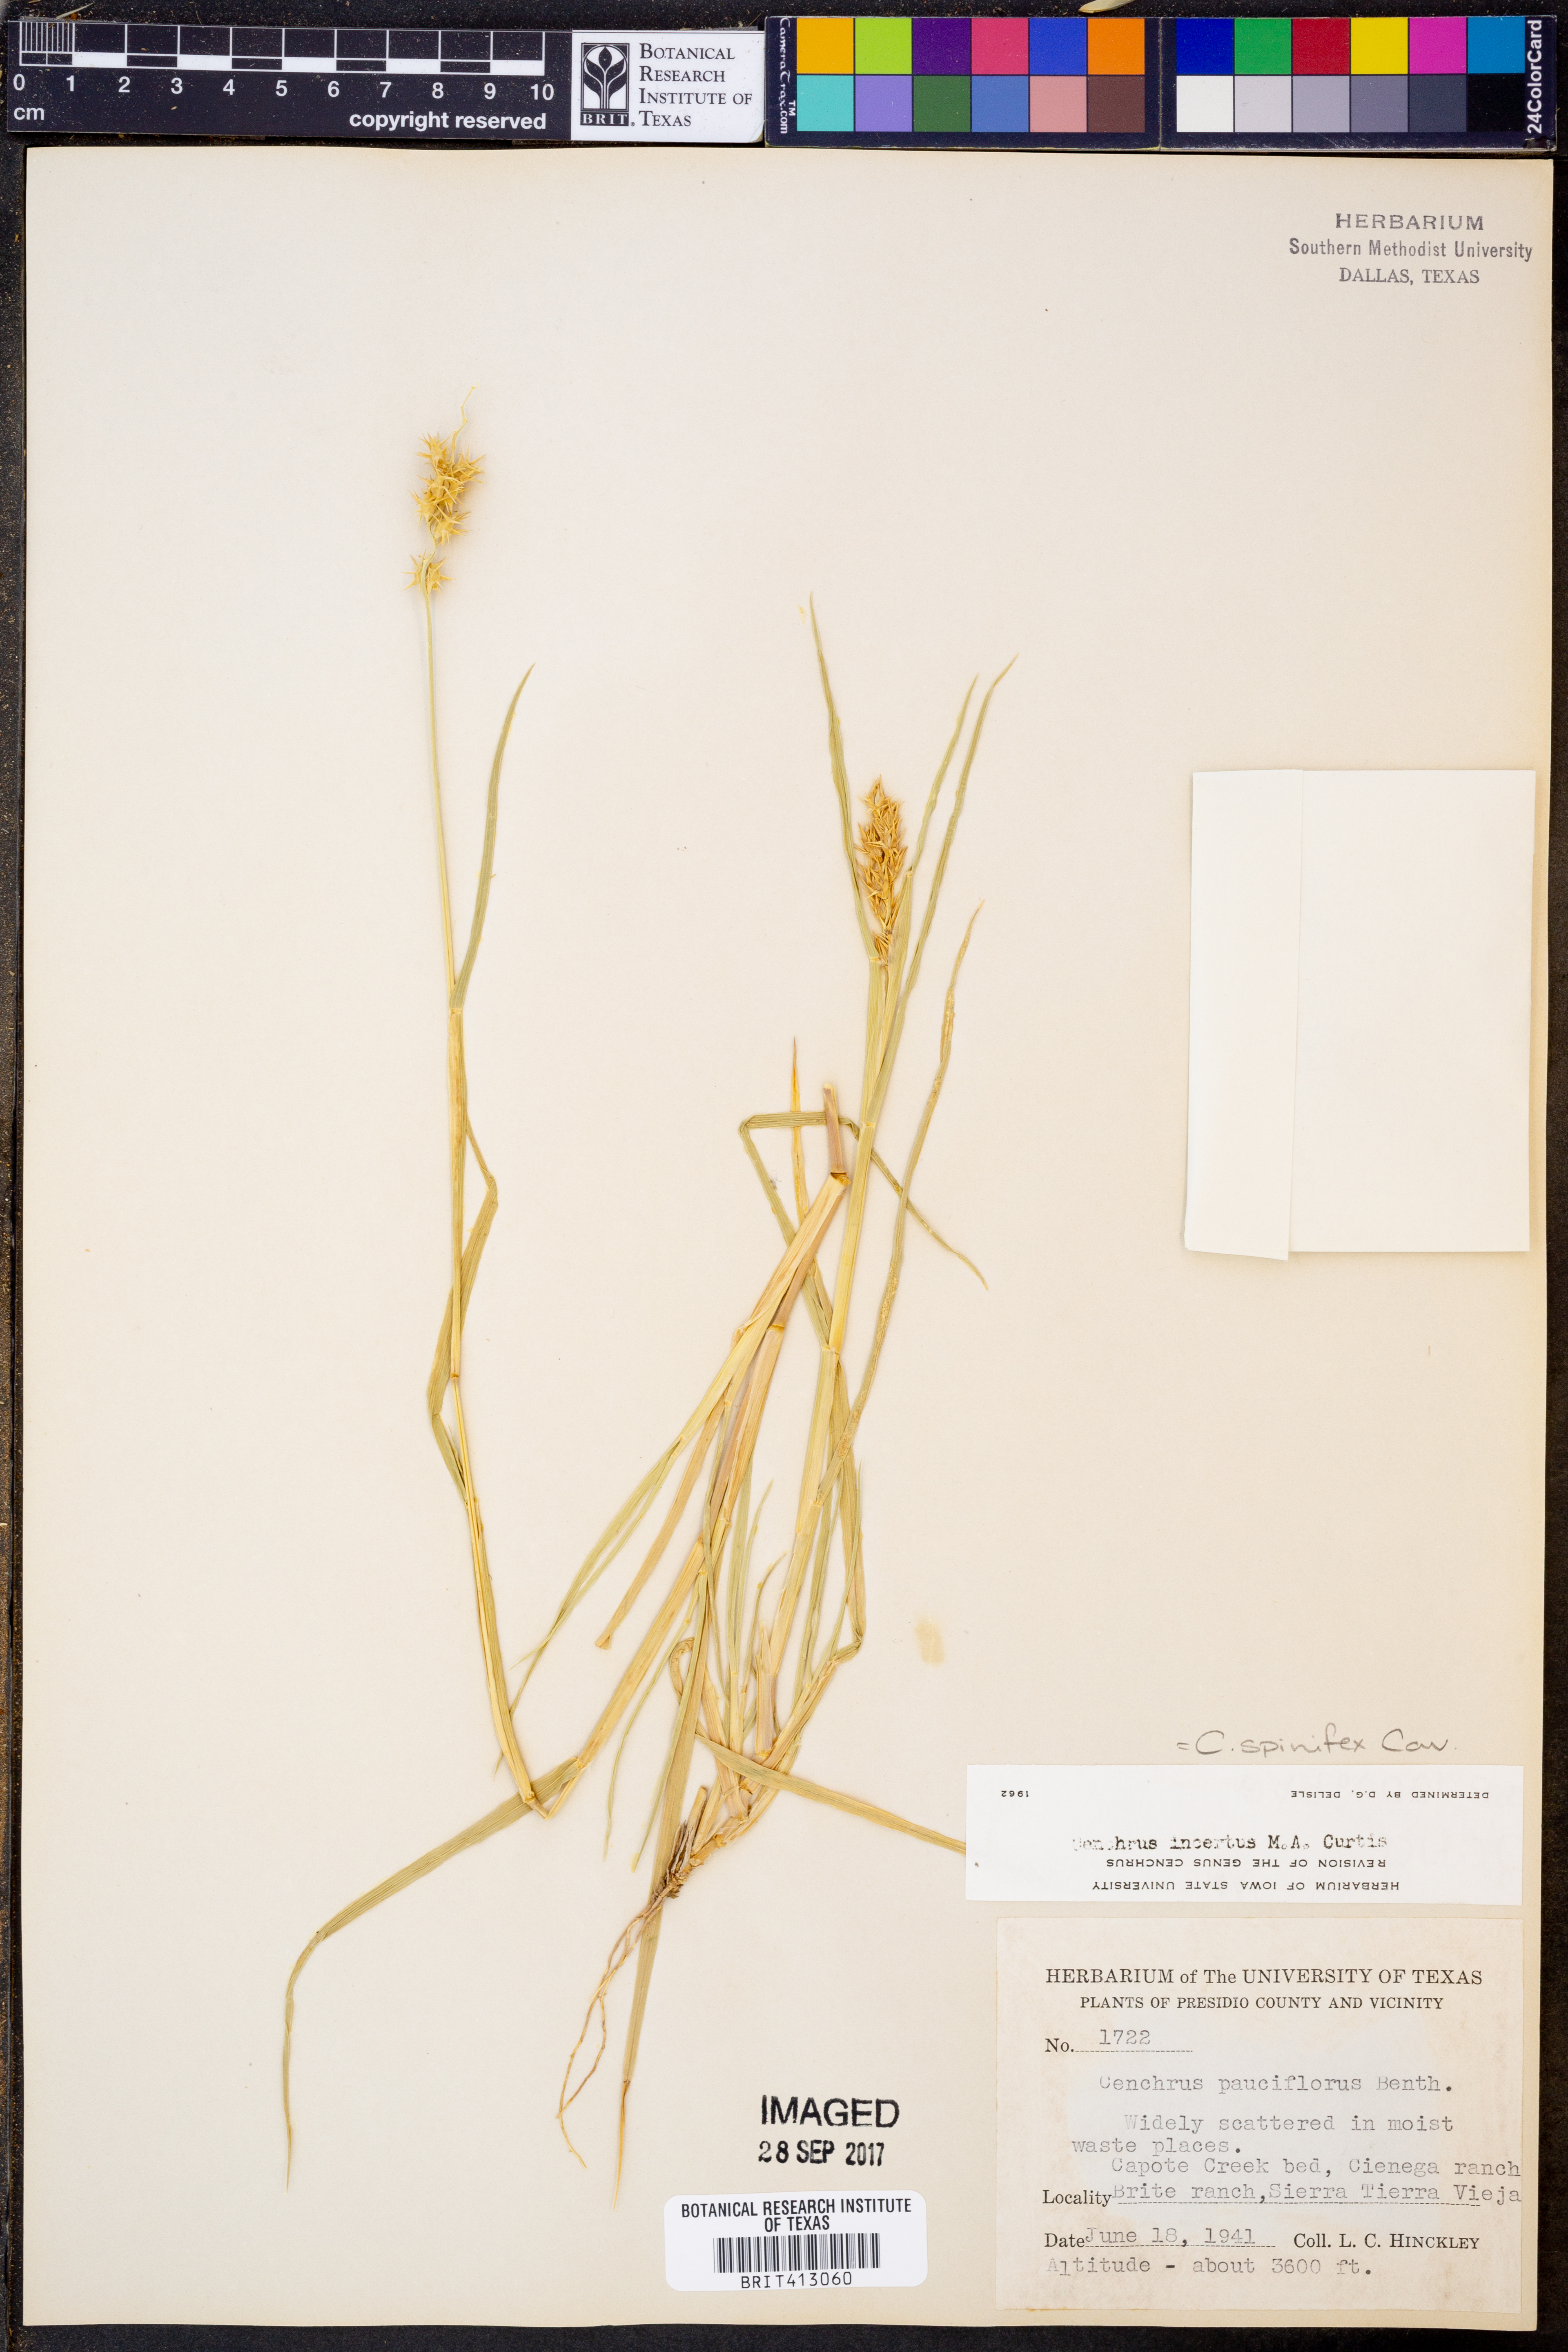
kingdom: Plantae
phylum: Tracheophyta
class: Liliopsida
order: Poales
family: Poaceae
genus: Cenchrus
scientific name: Cenchrus spinifex
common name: Coast sandbur
